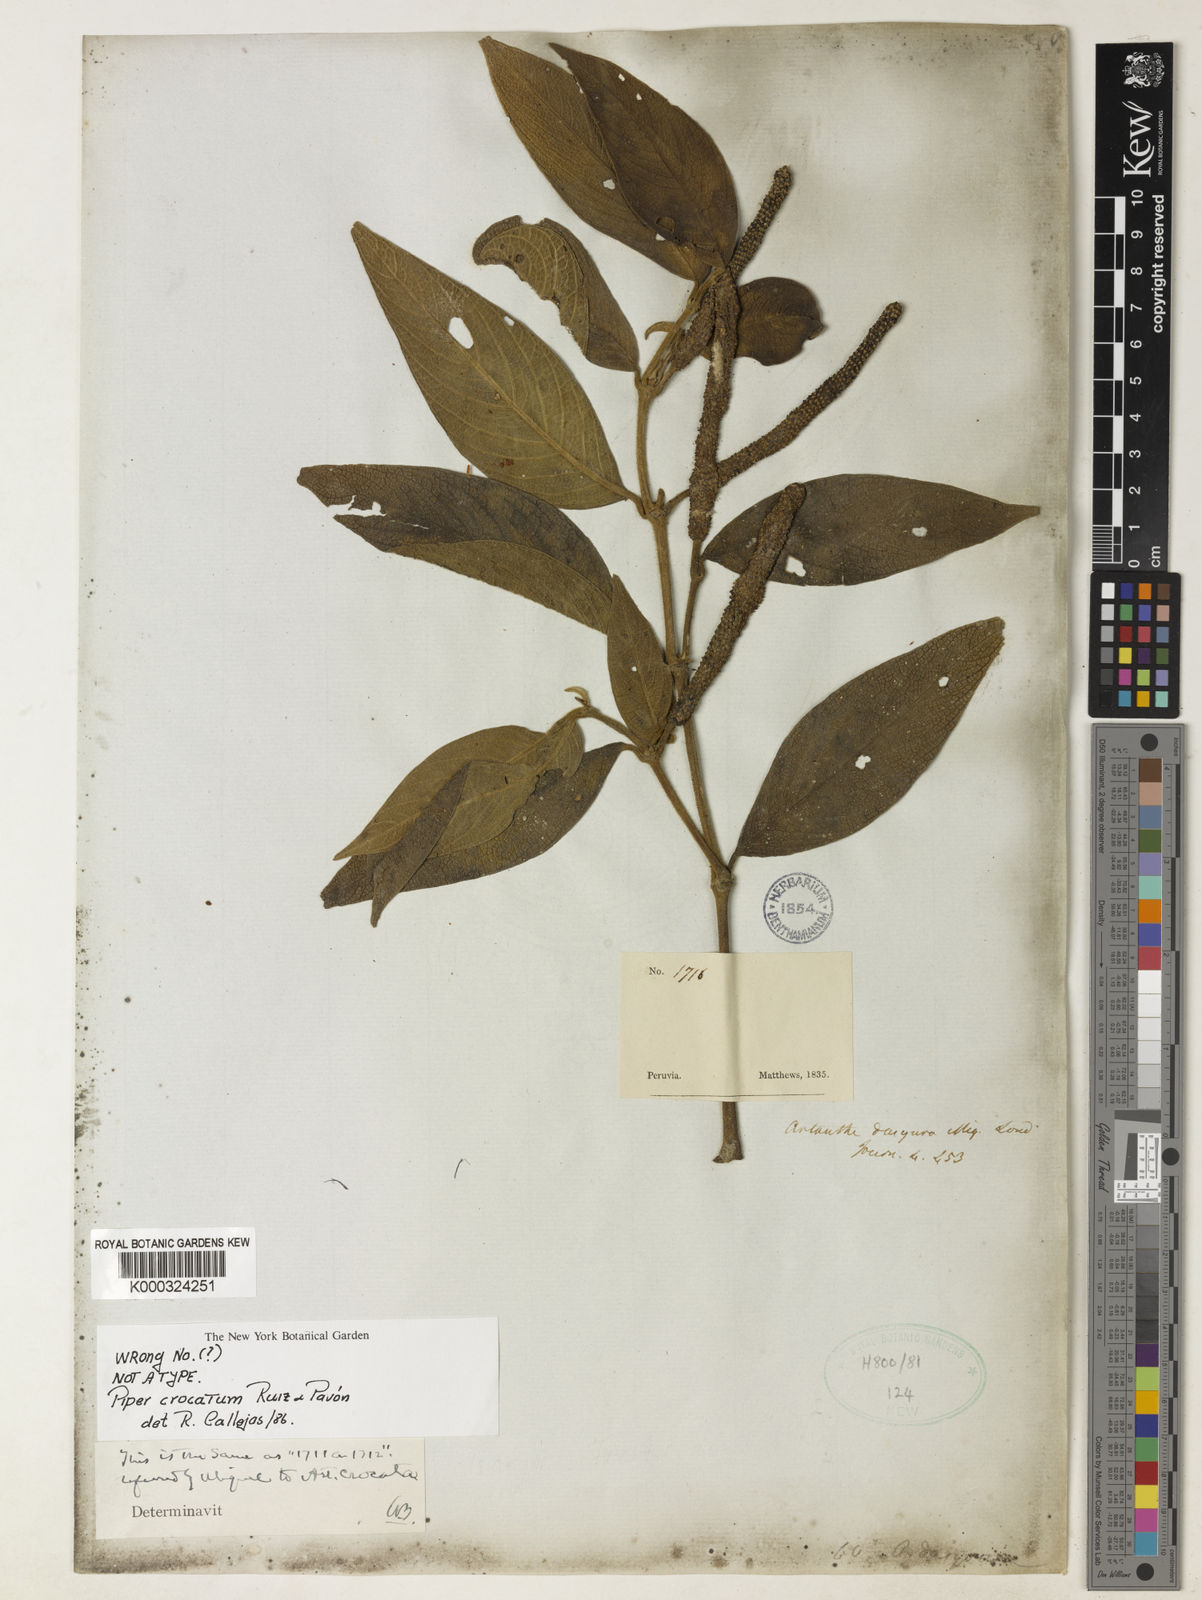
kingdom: Plantae
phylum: Tracheophyta
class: Magnoliopsida
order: Piperales
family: Piperaceae
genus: Piper
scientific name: Piper dasyoura
